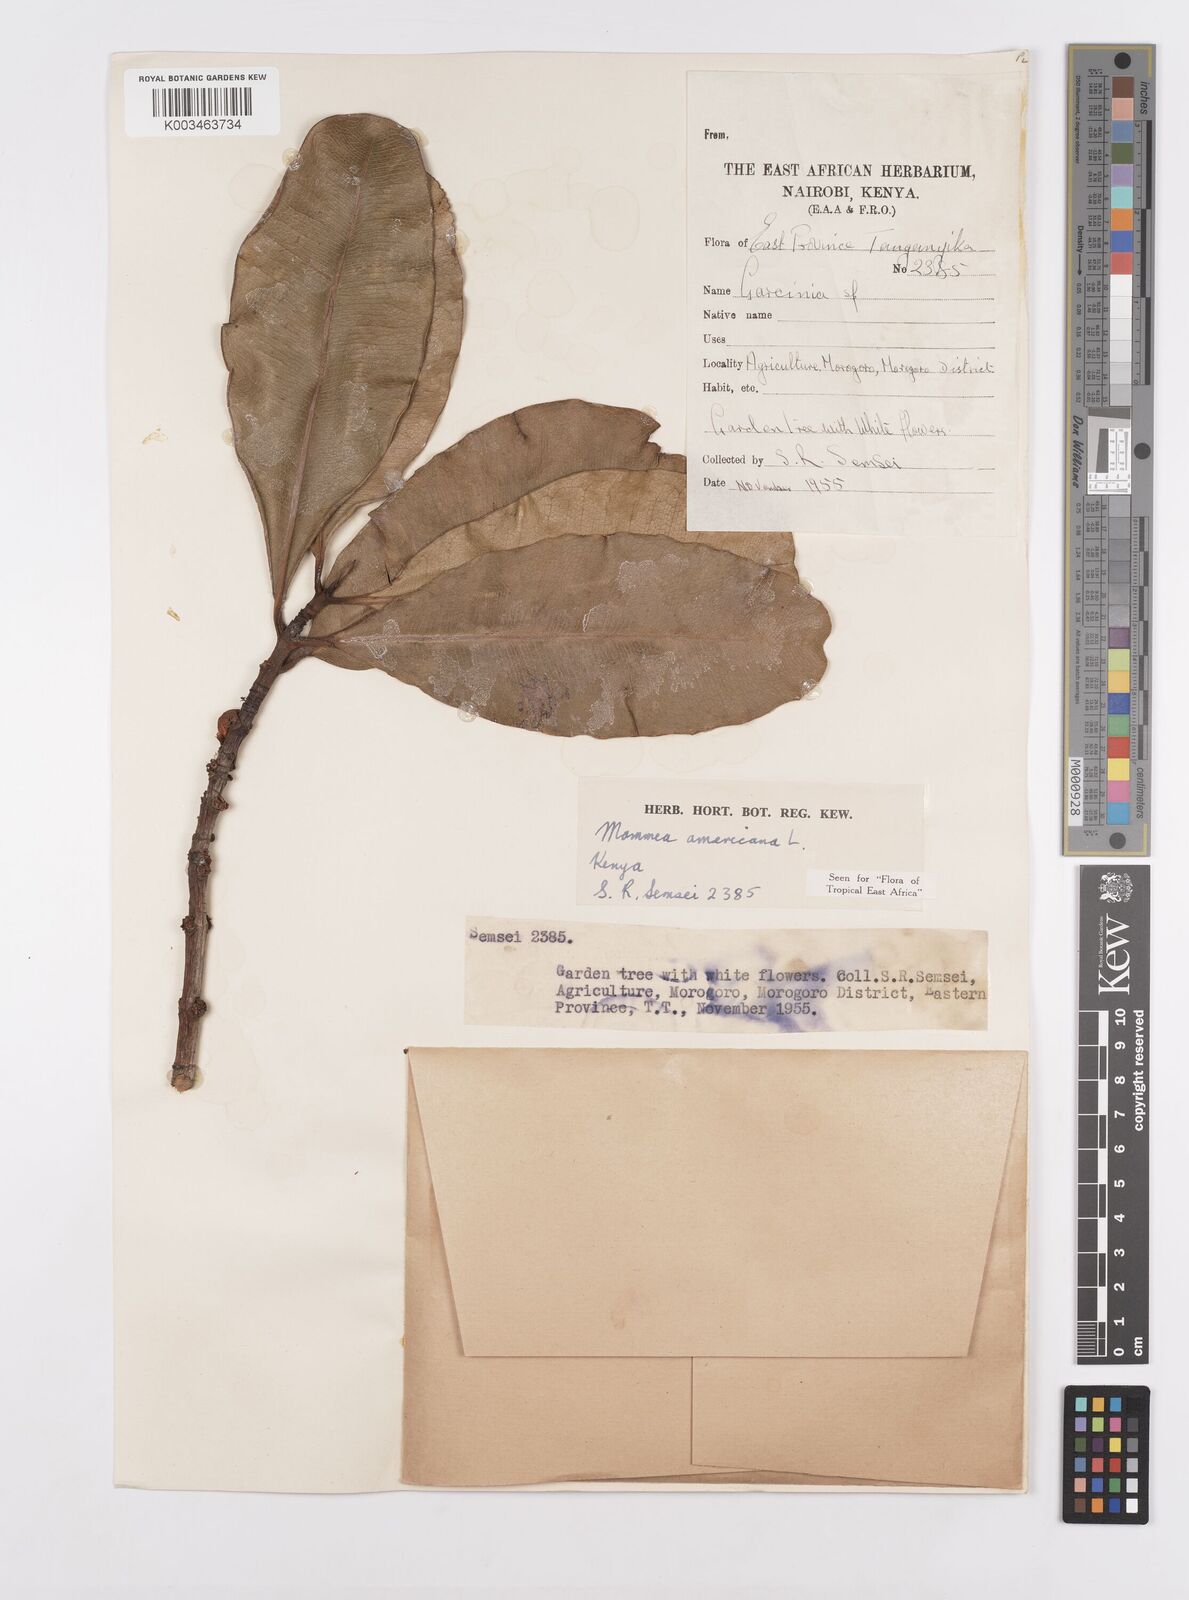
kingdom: Plantae
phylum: Tracheophyta
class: Magnoliopsida
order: Malpighiales
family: Calophyllaceae
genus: Mammea
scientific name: Mammea africana
